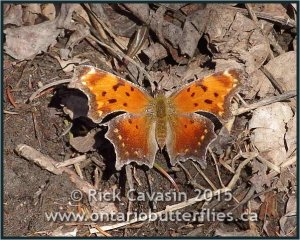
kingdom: Animalia
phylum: Arthropoda
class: Insecta
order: Lepidoptera
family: Nymphalidae
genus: Polygonia
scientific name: Polygonia progne
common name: Gray Comma
